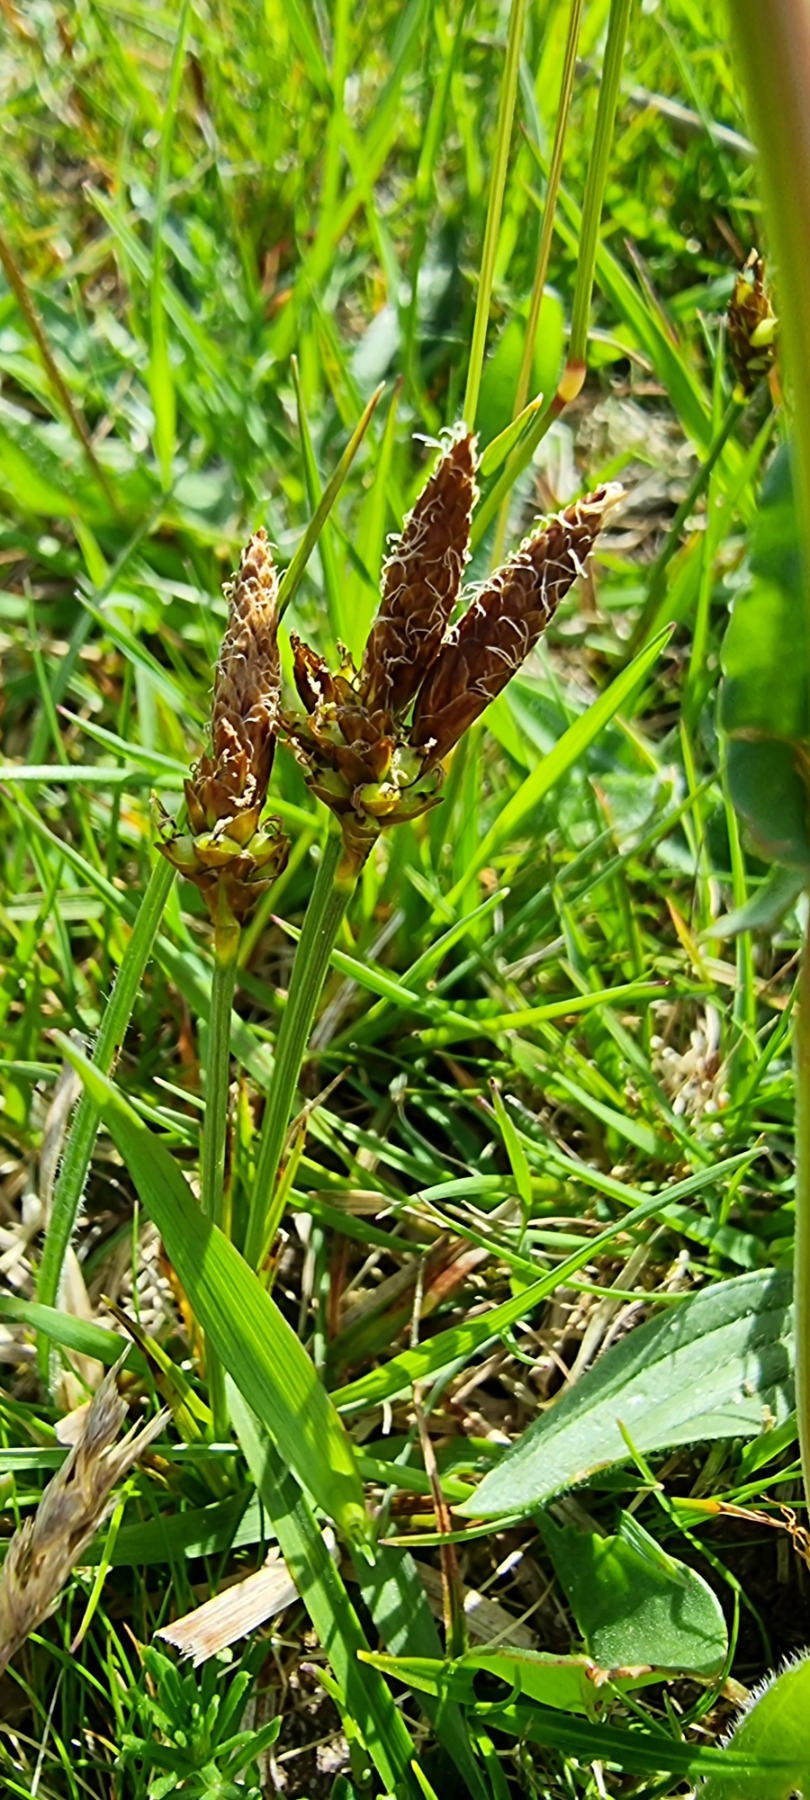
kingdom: Plantae
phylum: Tracheophyta
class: Liliopsida
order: Poales
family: Cyperaceae
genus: Carex
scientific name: Carex caryophyllea
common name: Vår-star
